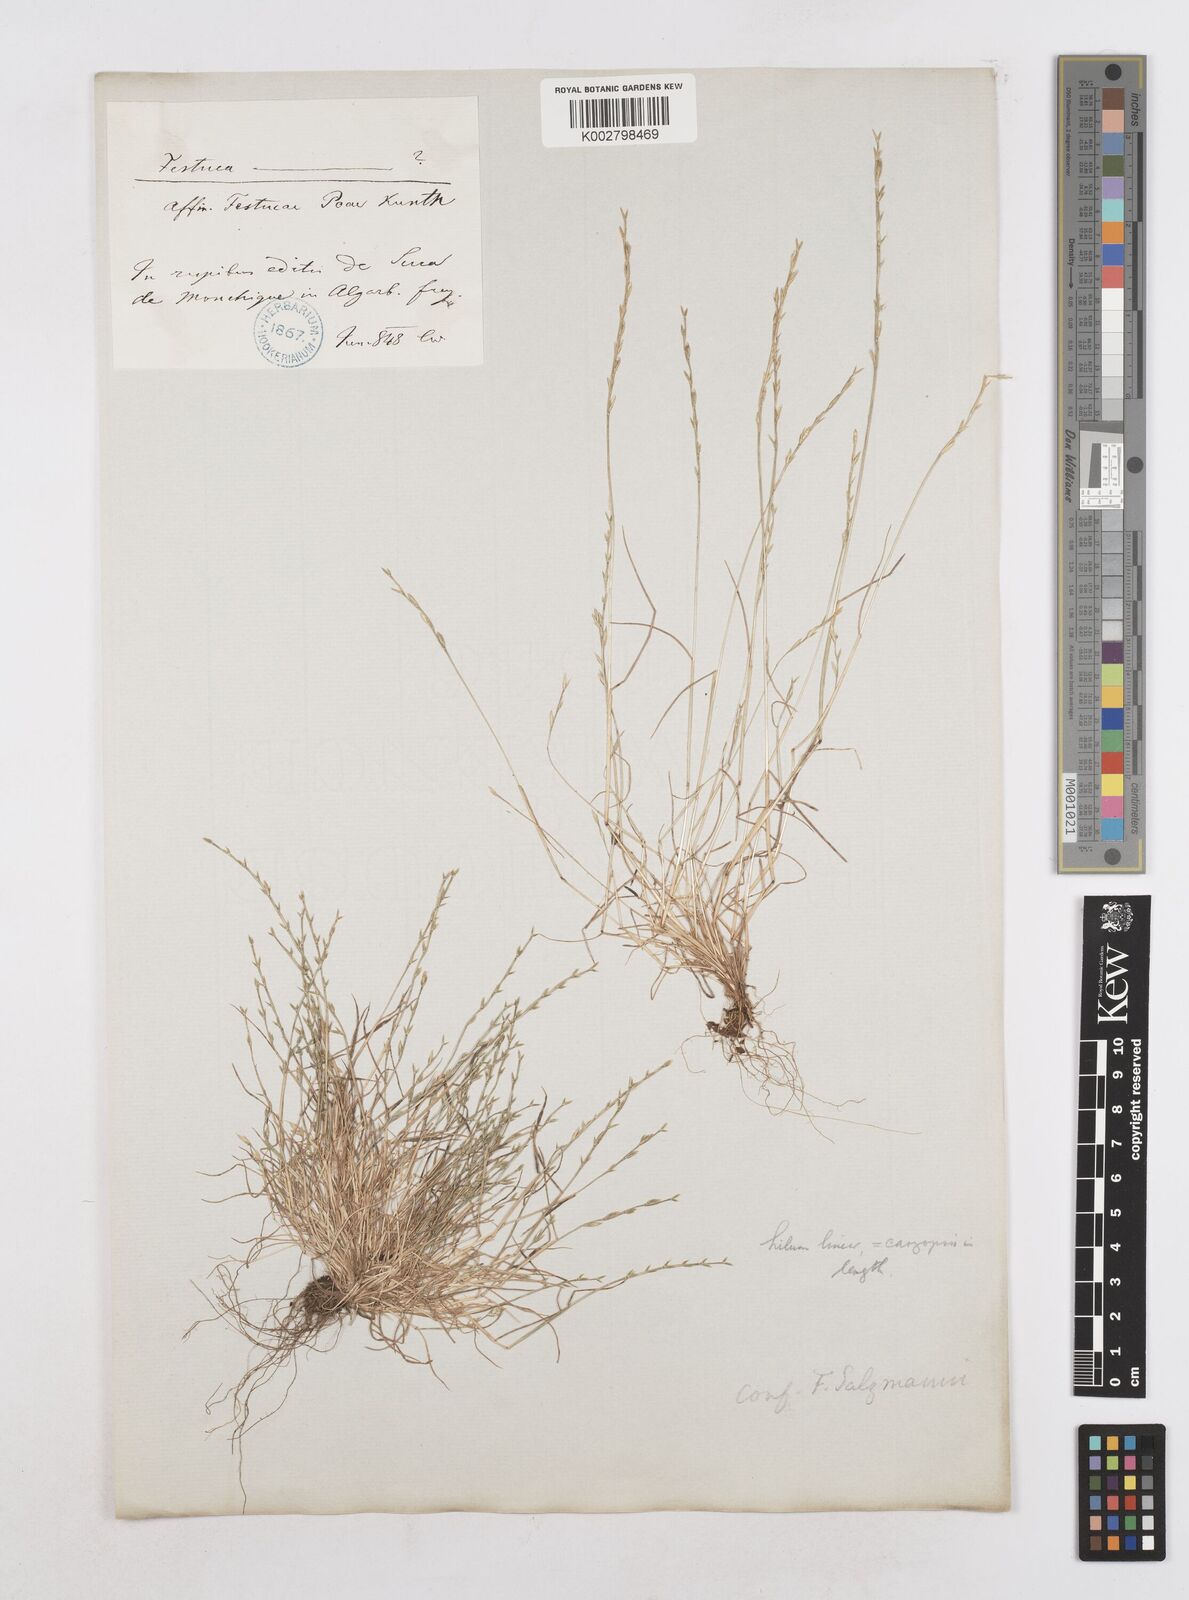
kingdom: Plantae
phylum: Tracheophyta
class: Liliopsida
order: Poales
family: Poaceae
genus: Festuca
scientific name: Festuca lachenalii
